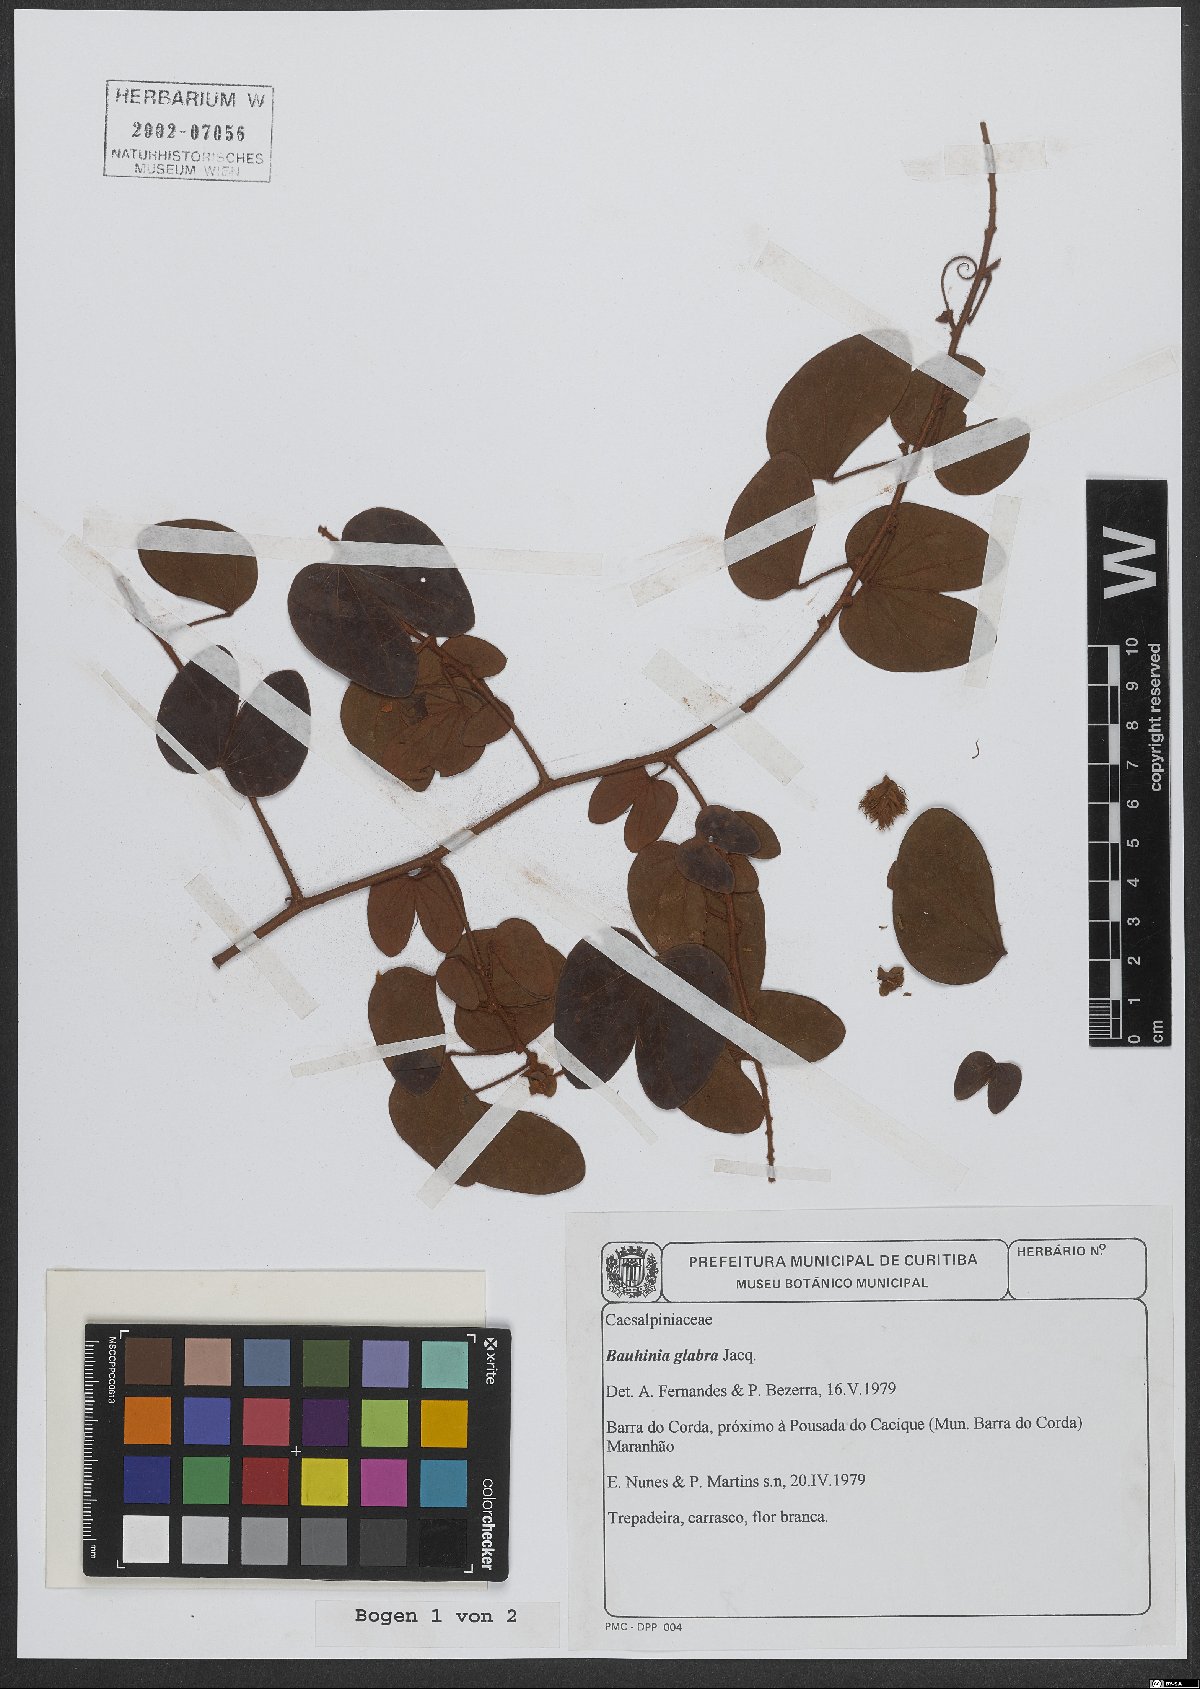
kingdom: Plantae
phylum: Tracheophyta
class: Magnoliopsida
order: Fabales
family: Fabaceae
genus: Schnella
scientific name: Schnella glabra
